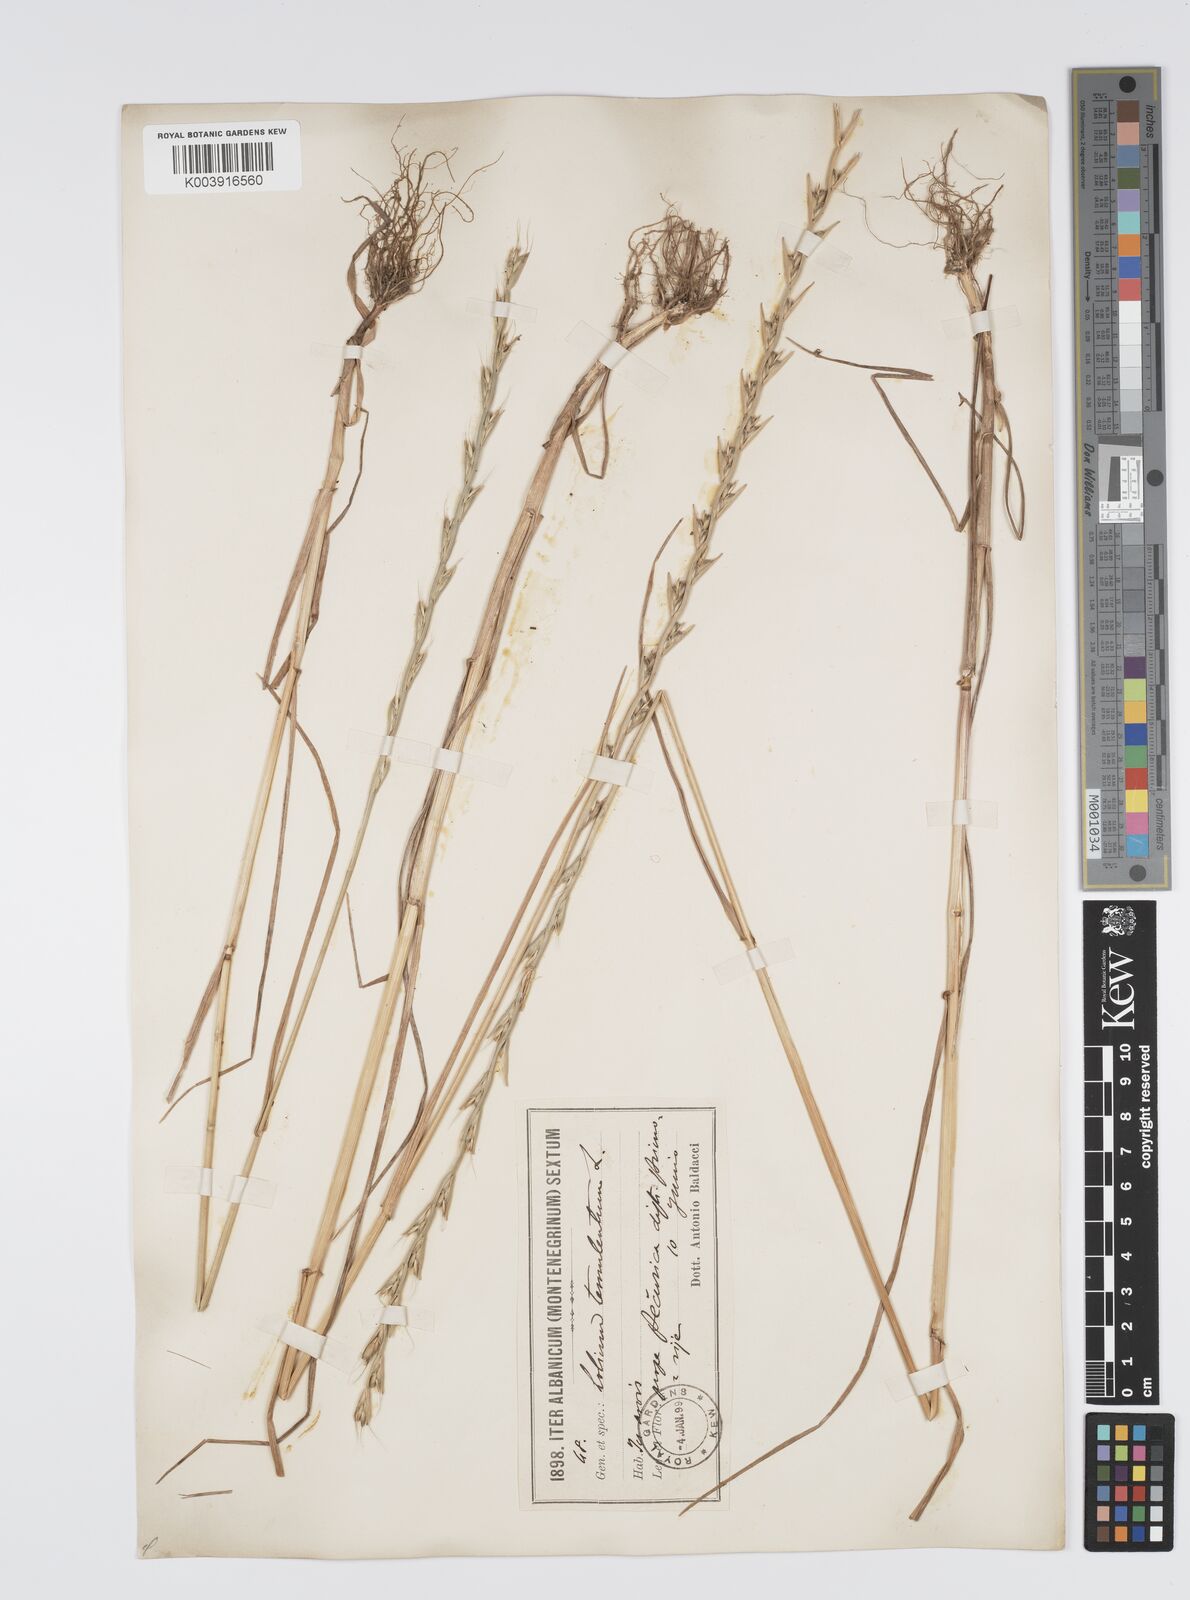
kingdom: Plantae
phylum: Tracheophyta
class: Liliopsida
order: Poales
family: Poaceae
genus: Lolium
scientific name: Lolium temulentum
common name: Darnel
